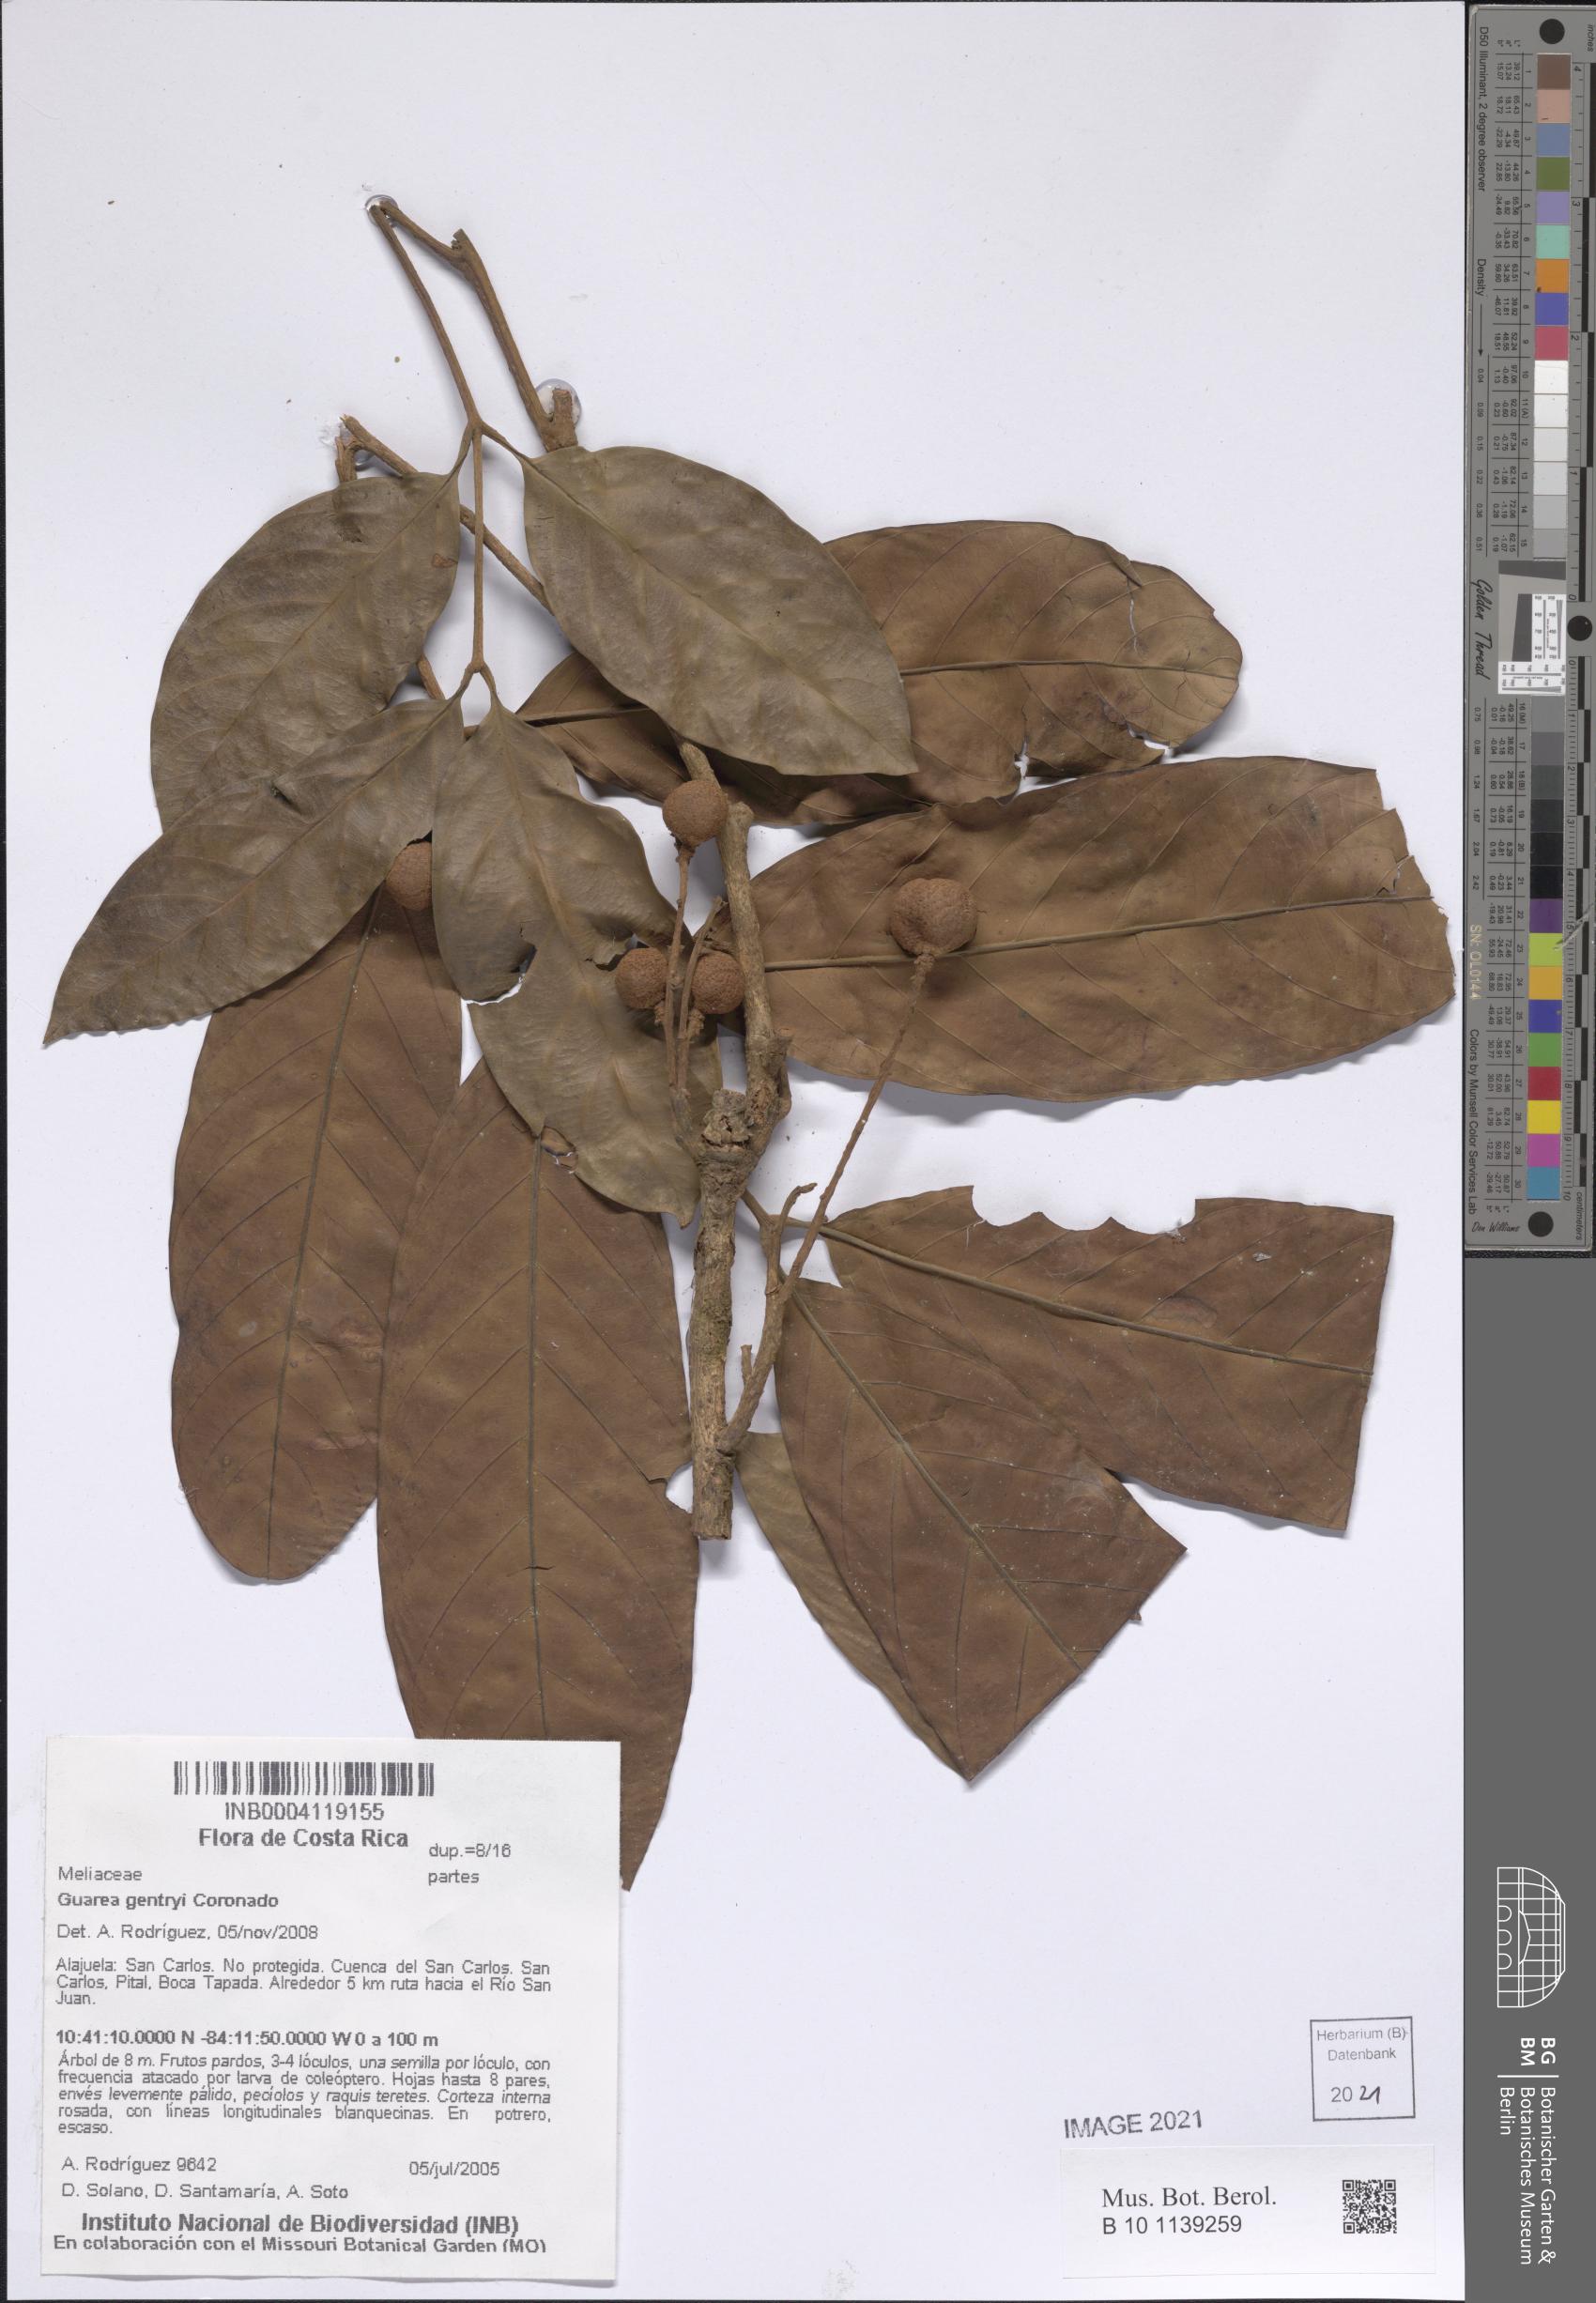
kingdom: Plantae
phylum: Tracheophyta
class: Magnoliopsida
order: Sapindales
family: Meliaceae
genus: Guarea
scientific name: Guarea gentryi
